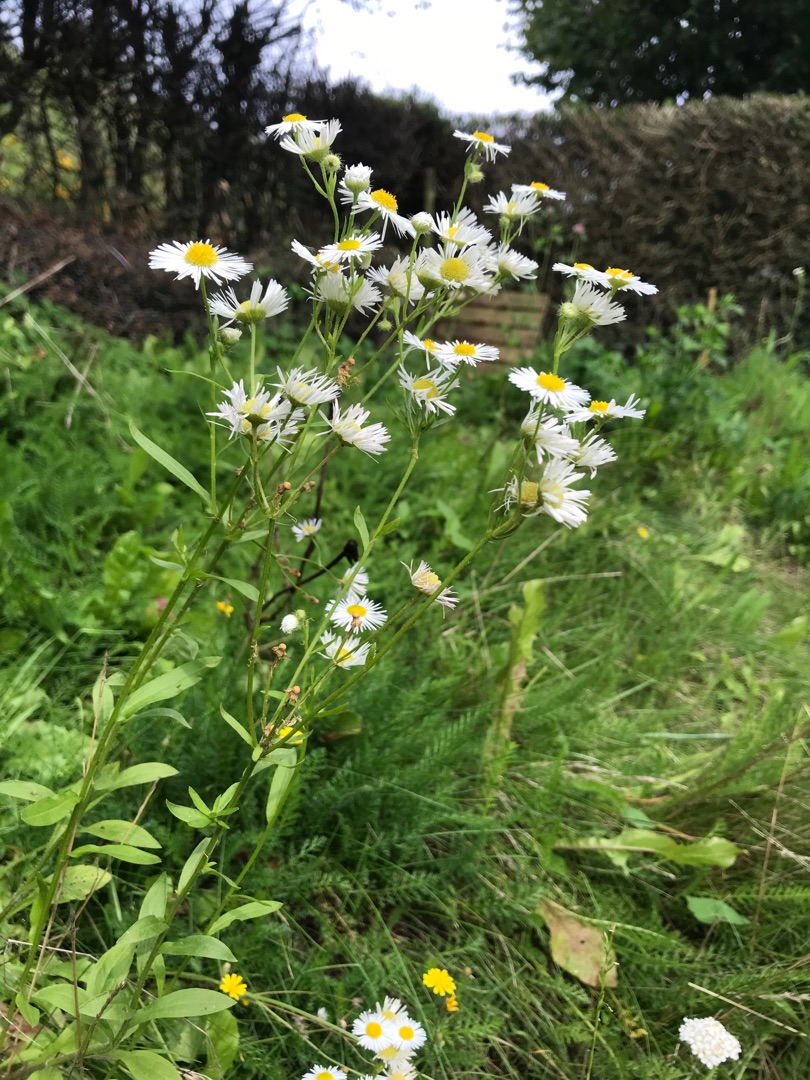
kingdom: Plantae
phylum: Tracheophyta
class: Magnoliopsida
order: Asterales
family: Asteraceae
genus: Erigeron
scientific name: Erigeron annuus
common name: Smalstråle
